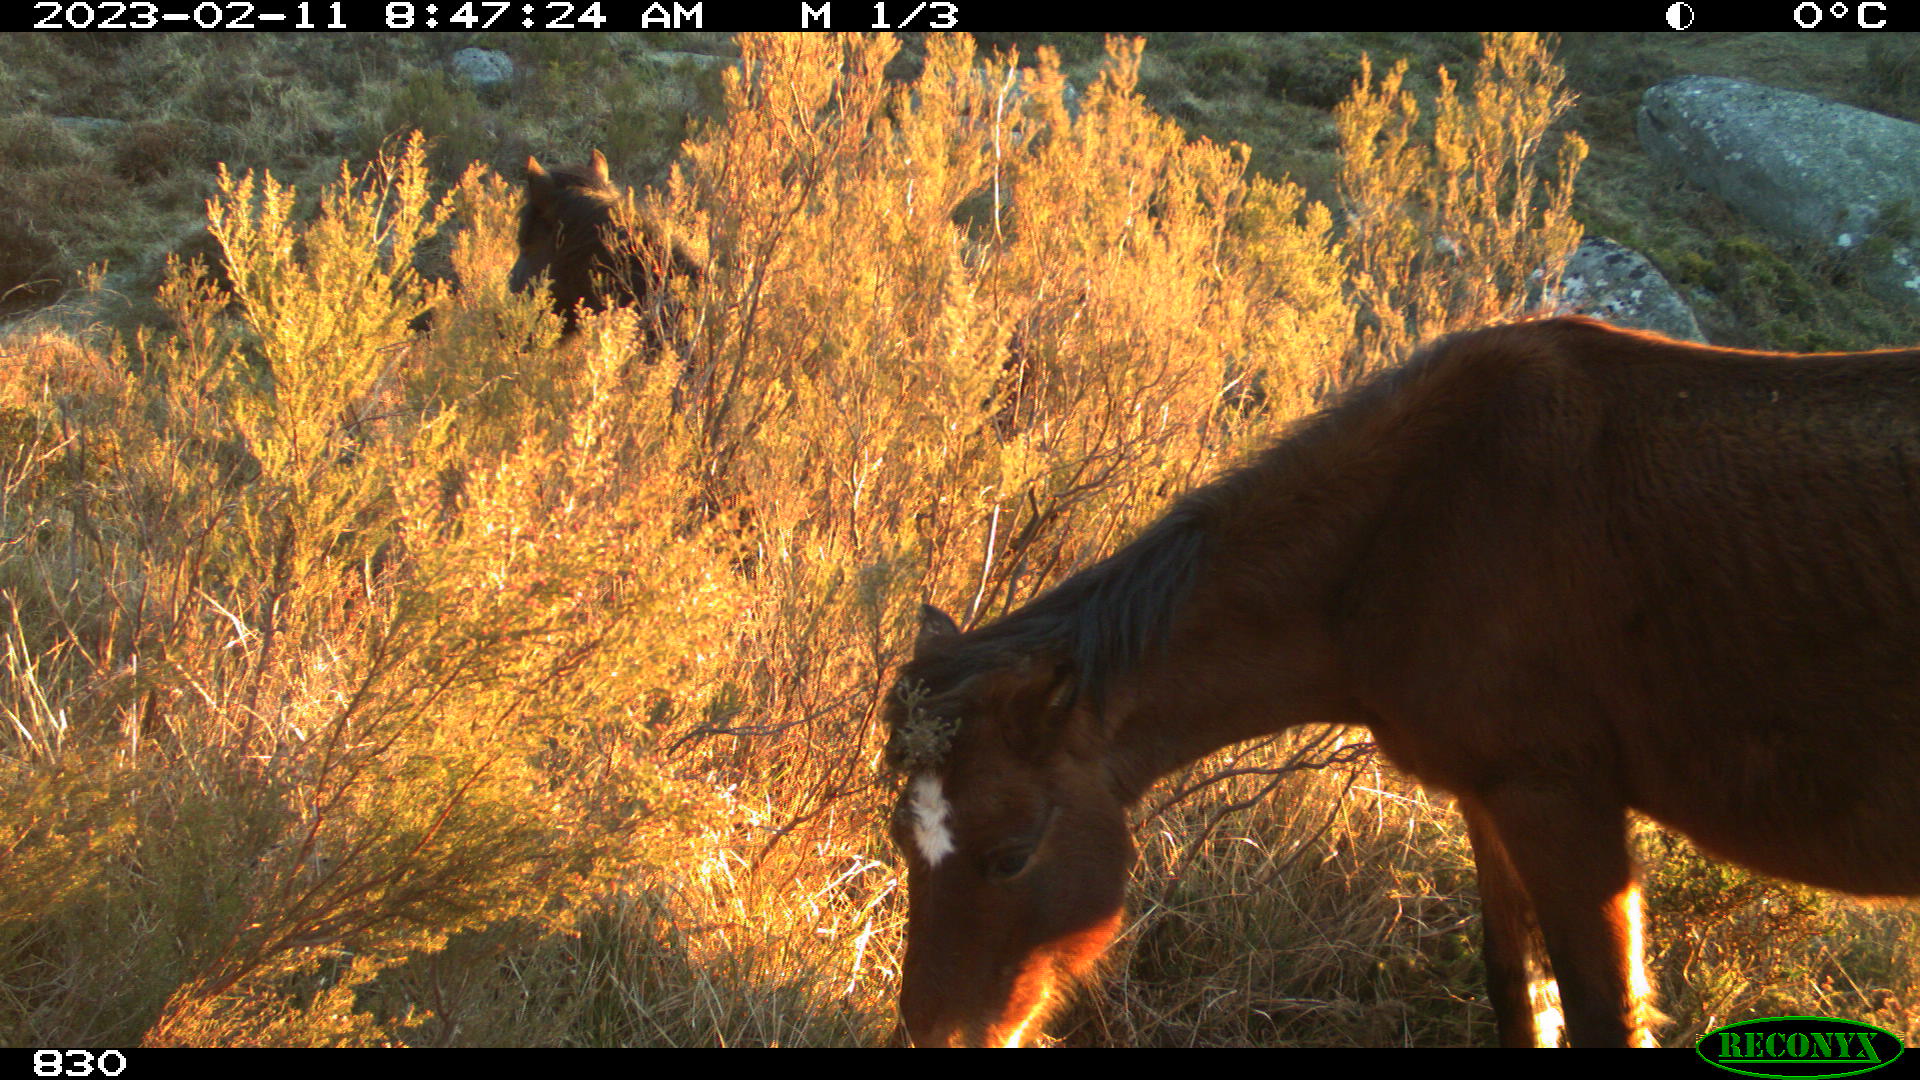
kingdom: Animalia
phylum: Chordata
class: Mammalia
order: Perissodactyla
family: Equidae
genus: Equus
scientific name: Equus caballus
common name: Horse
